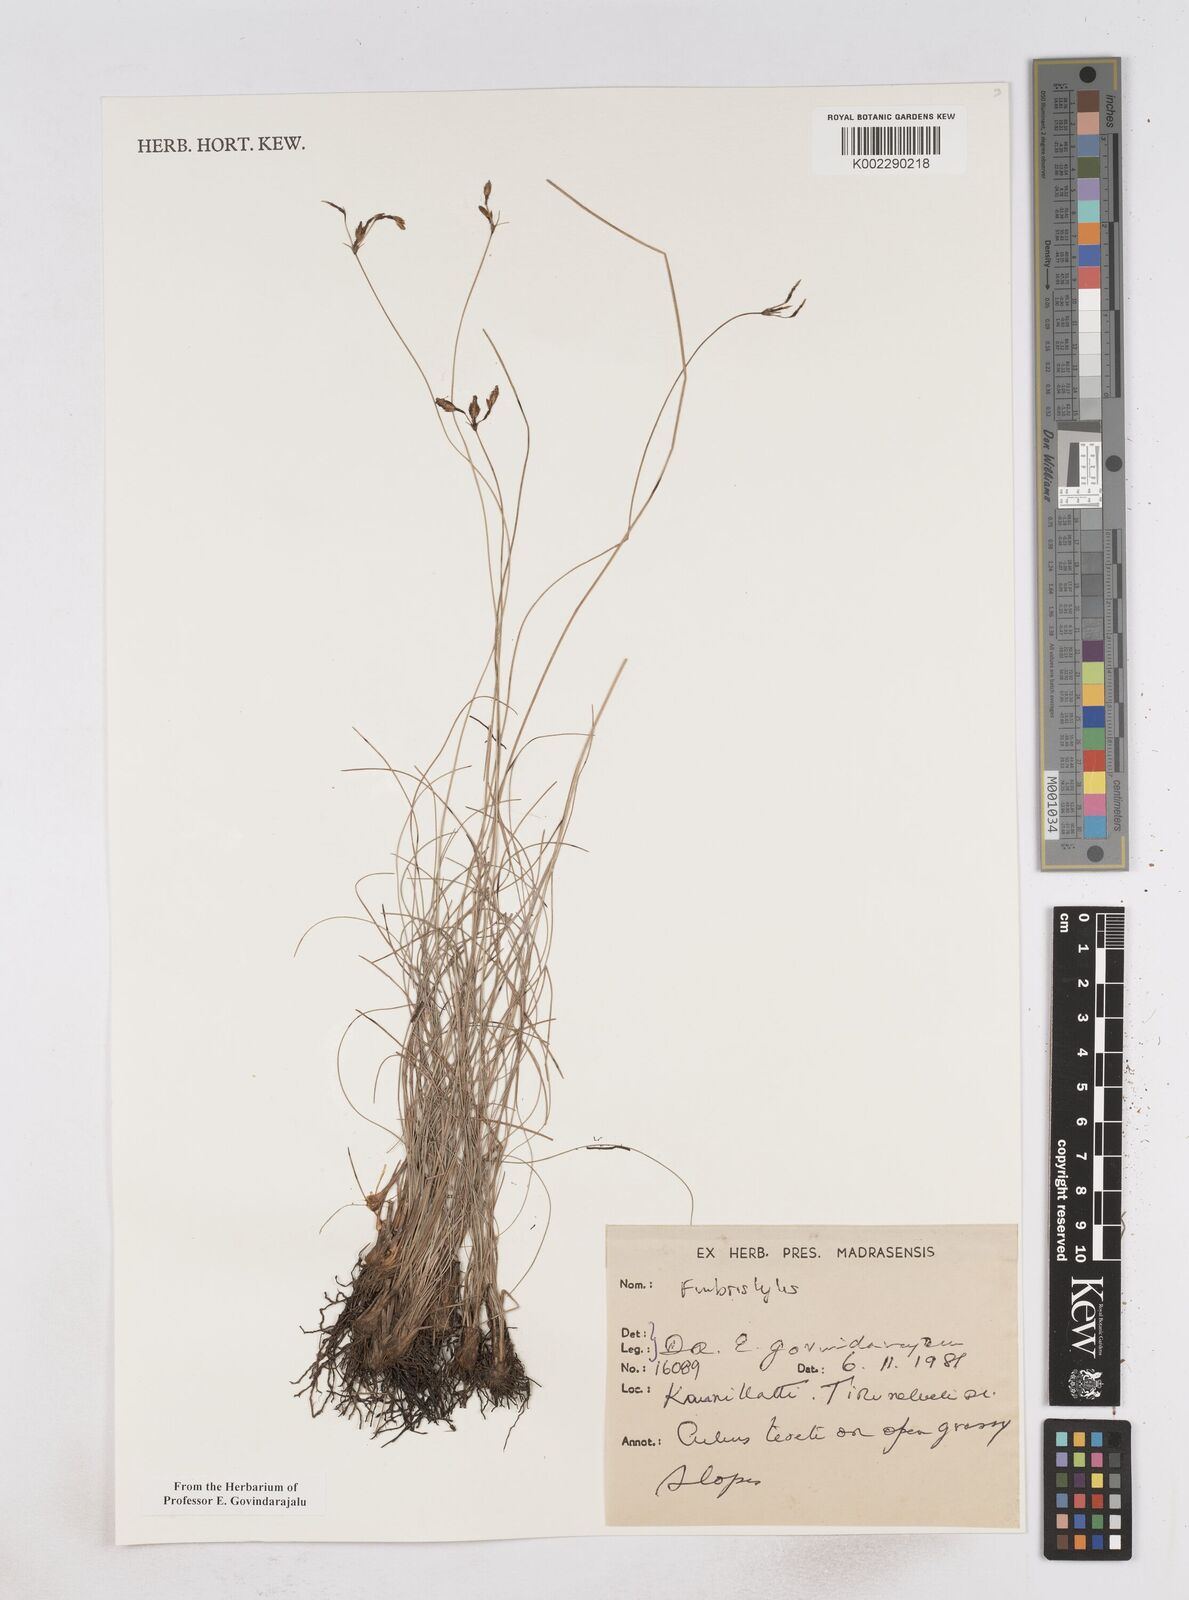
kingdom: Plantae
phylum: Tracheophyta
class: Liliopsida
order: Poales
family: Cyperaceae
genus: Fimbristylis
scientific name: Fimbristylis
